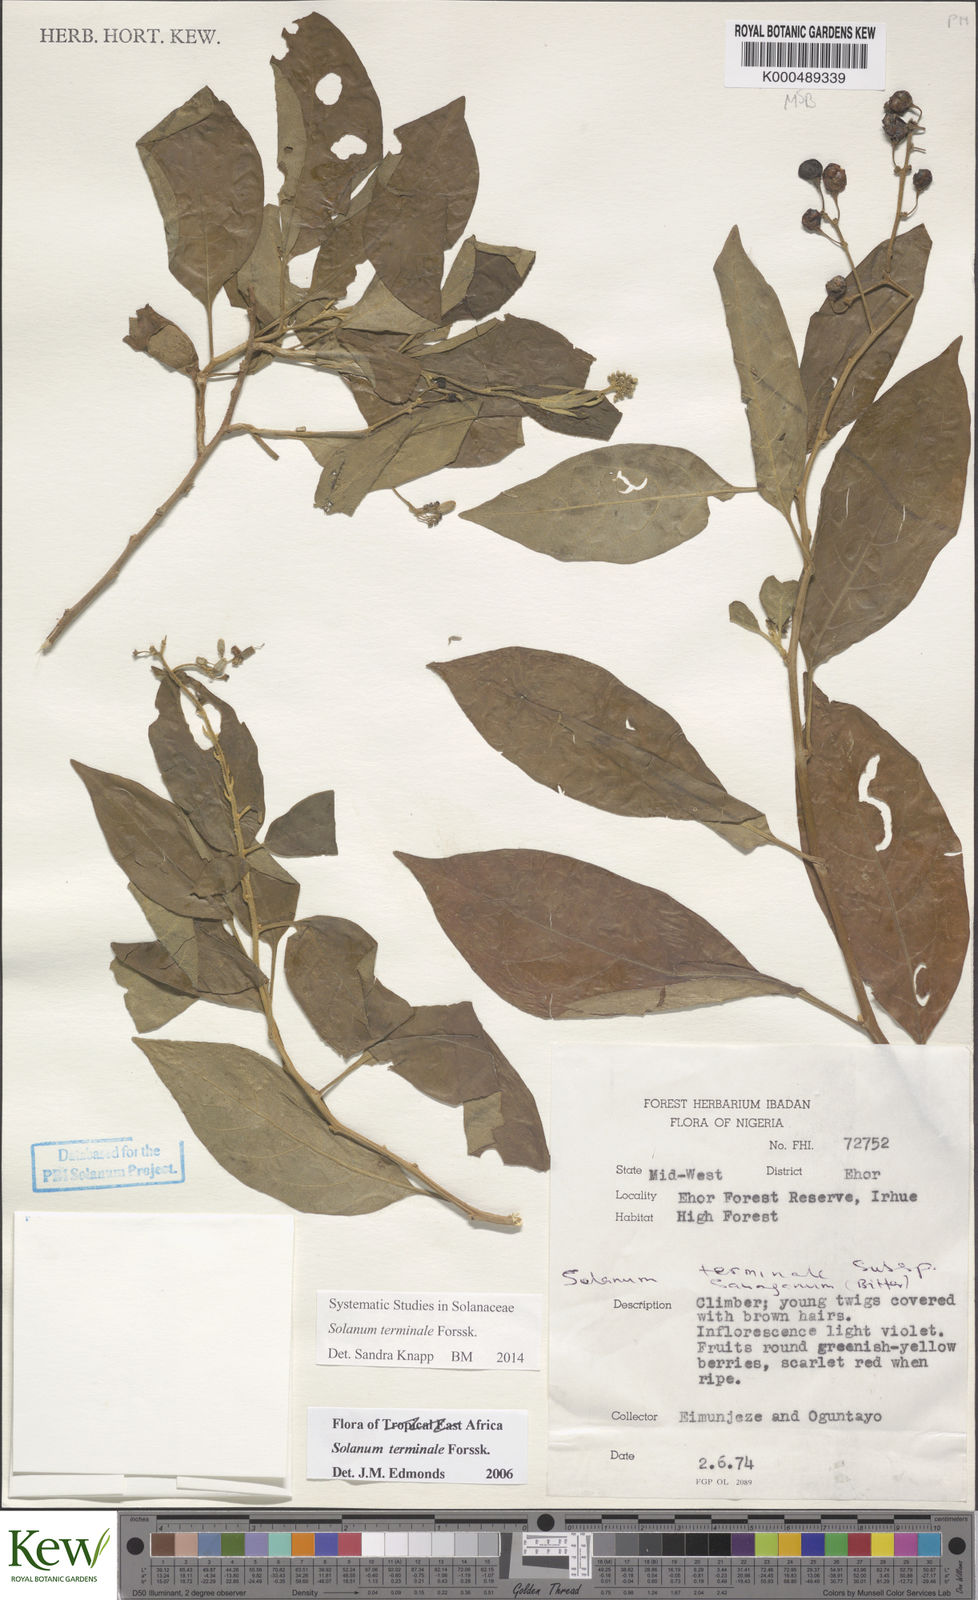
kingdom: Plantae
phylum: Tracheophyta
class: Magnoliopsida
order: Solanales
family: Solanaceae
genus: Solanum
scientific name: Solanum terminale
